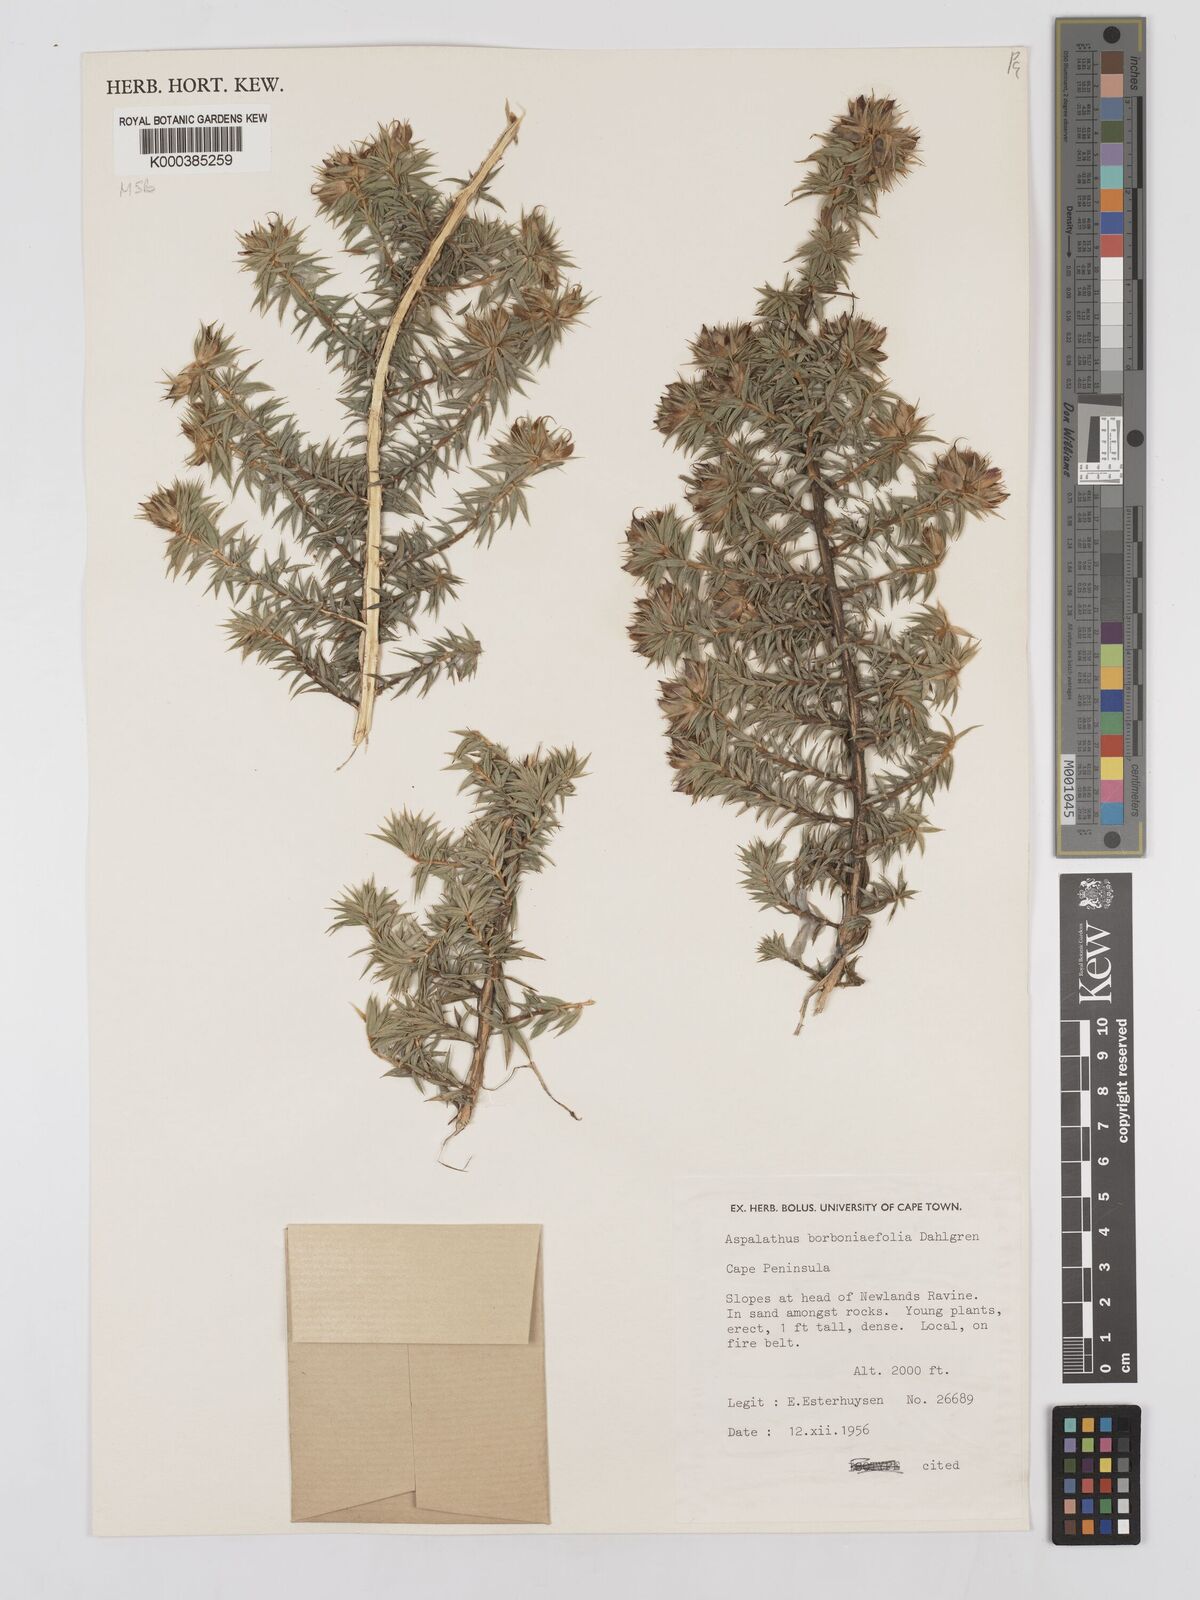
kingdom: Plantae
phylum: Tracheophyta
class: Magnoliopsida
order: Fabales
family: Fabaceae
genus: Aspalathus
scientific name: Aspalathus borboniifolia
